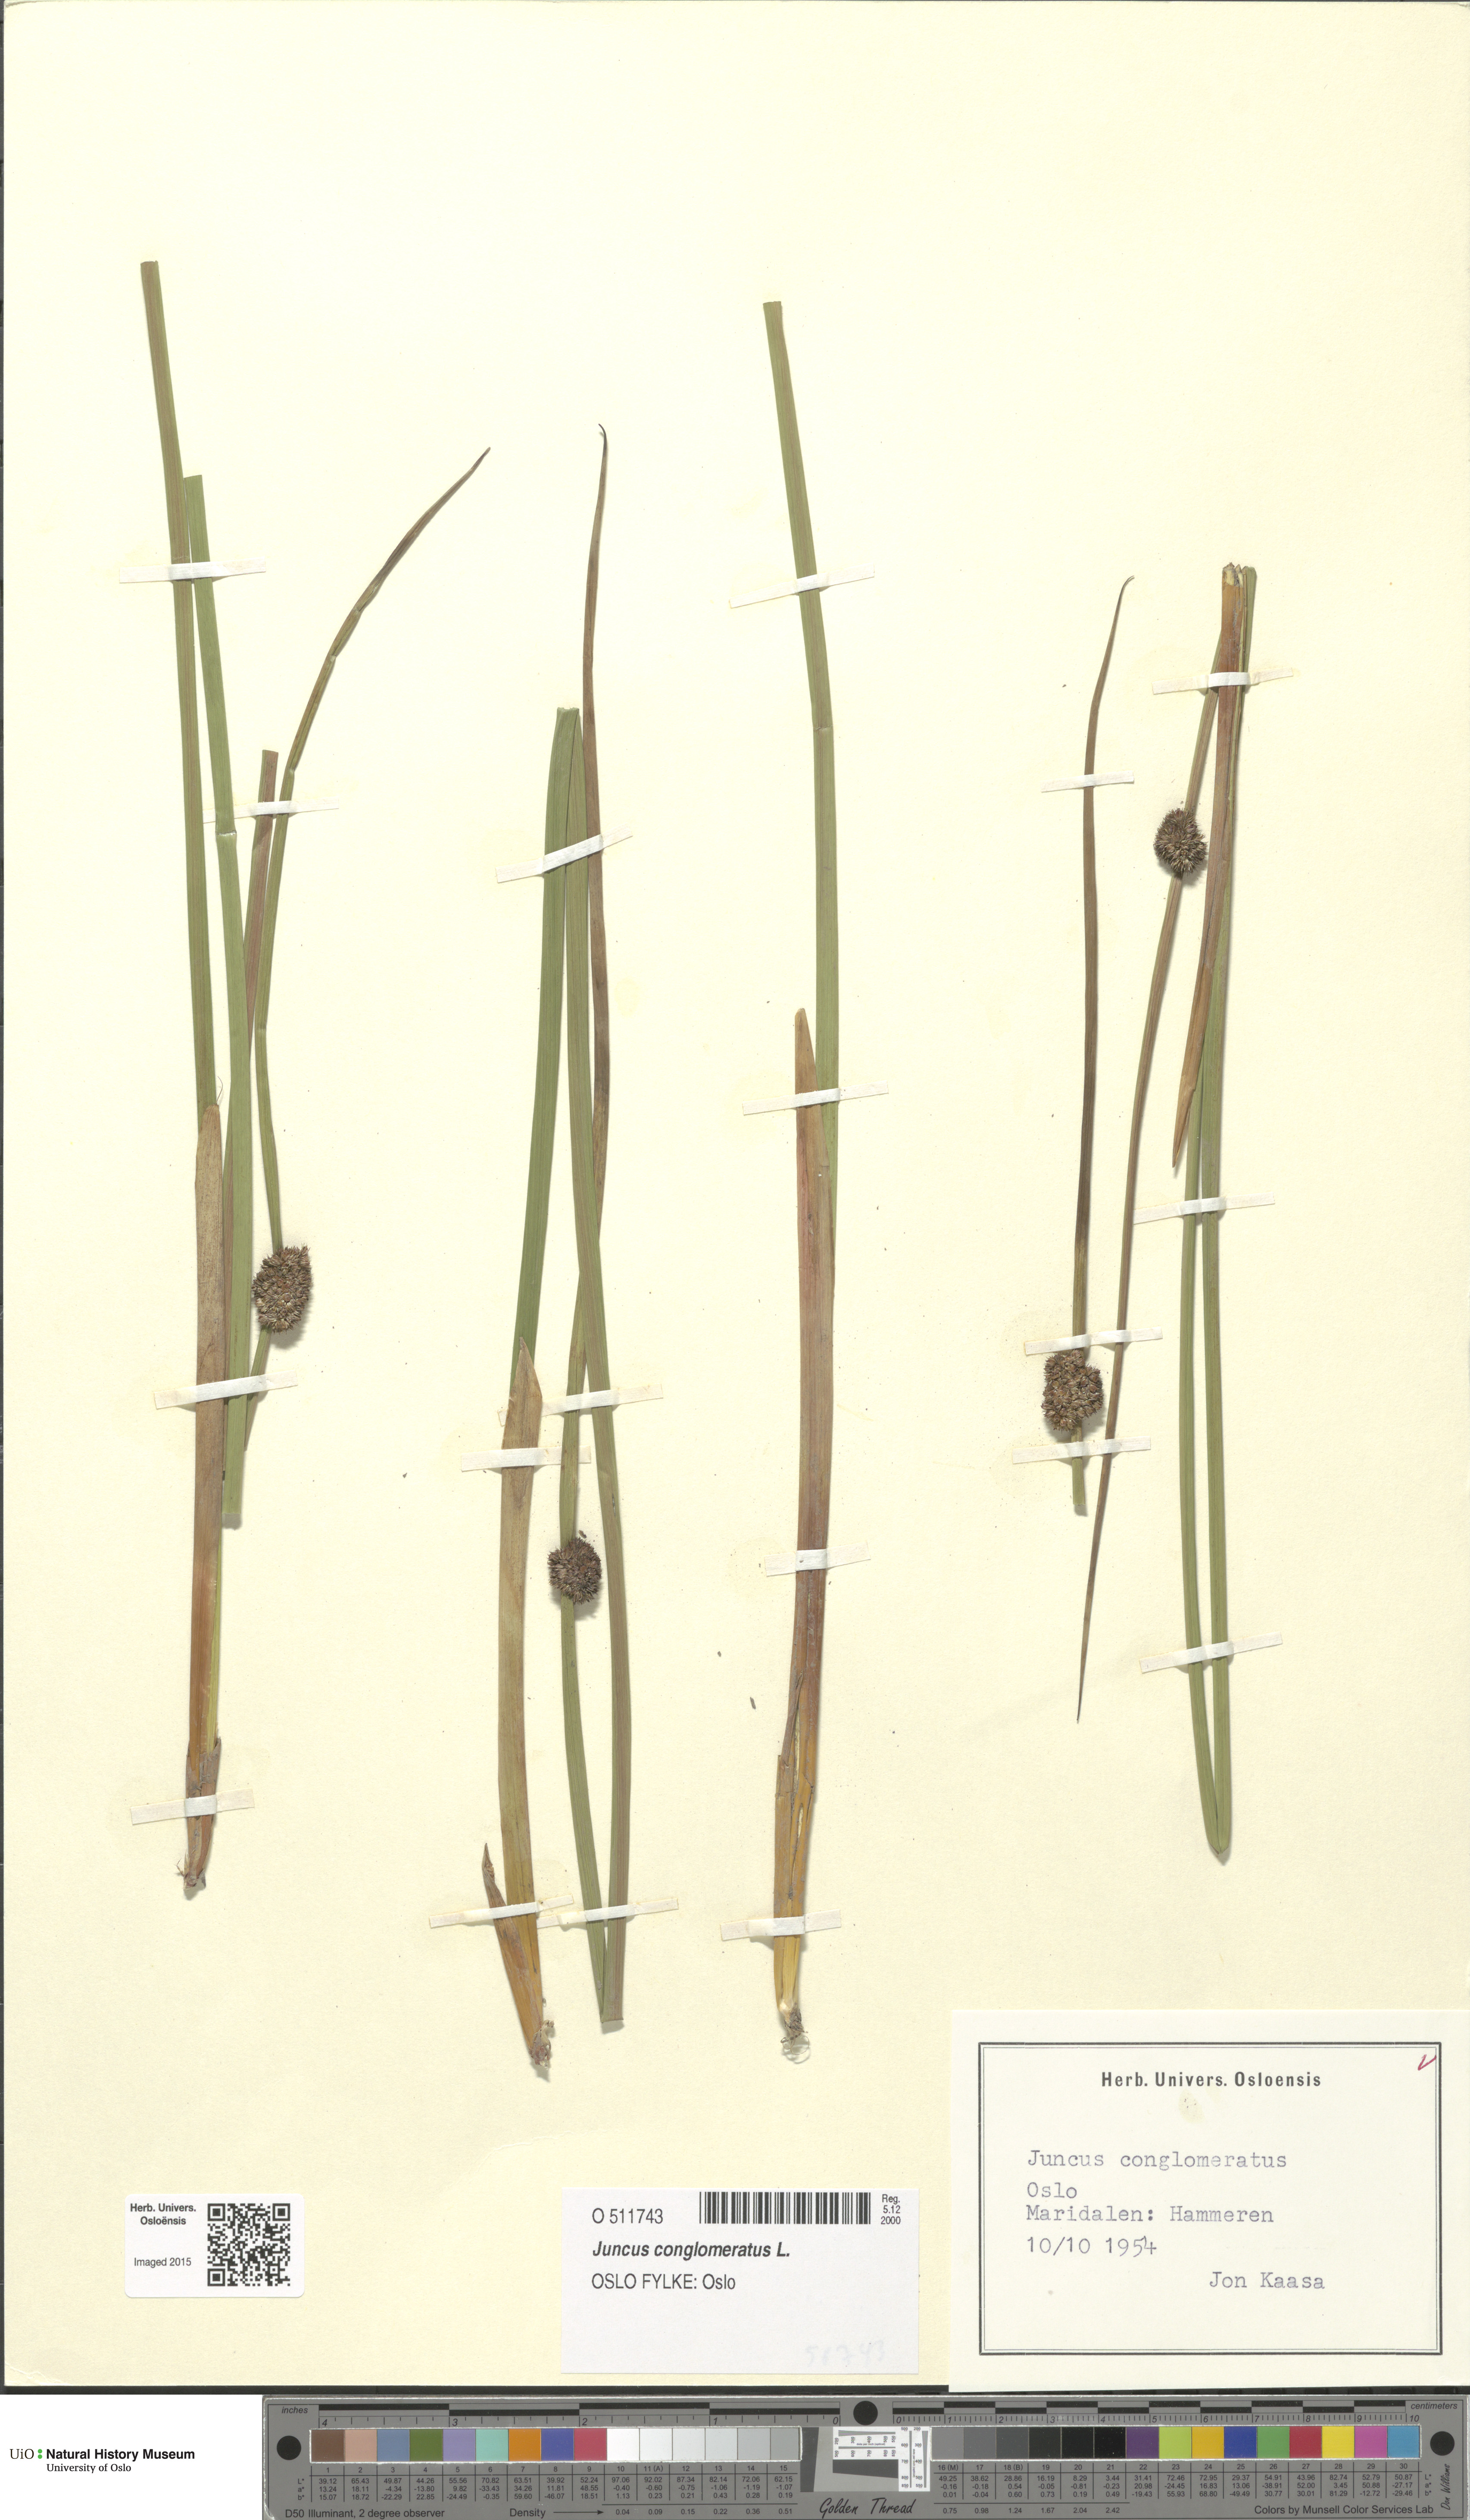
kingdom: Plantae
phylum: Tracheophyta
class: Liliopsida
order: Poales
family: Juncaceae
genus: Juncus
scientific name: Juncus conglomeratus
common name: Compact rush
